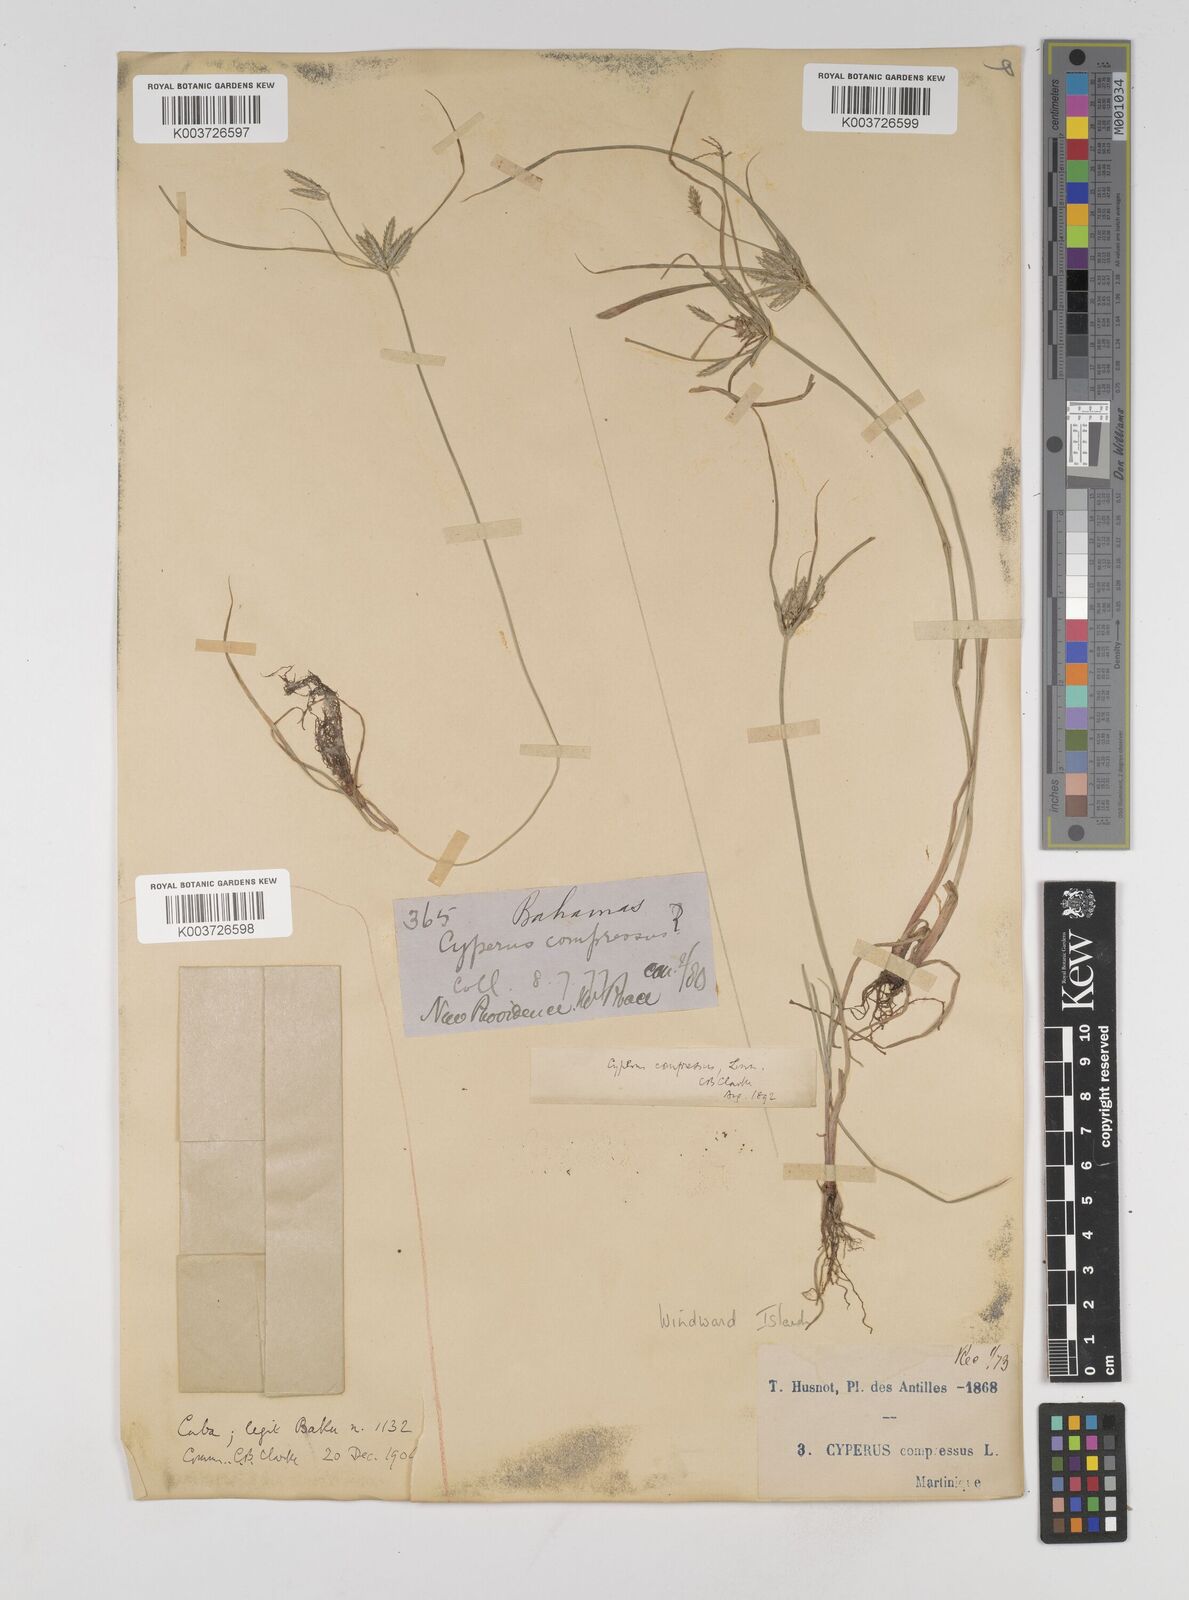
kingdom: Plantae
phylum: Tracheophyta
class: Liliopsida
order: Poales
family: Cyperaceae
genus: Cyperus
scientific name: Cyperus compressus
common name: Poorland flatsedge
